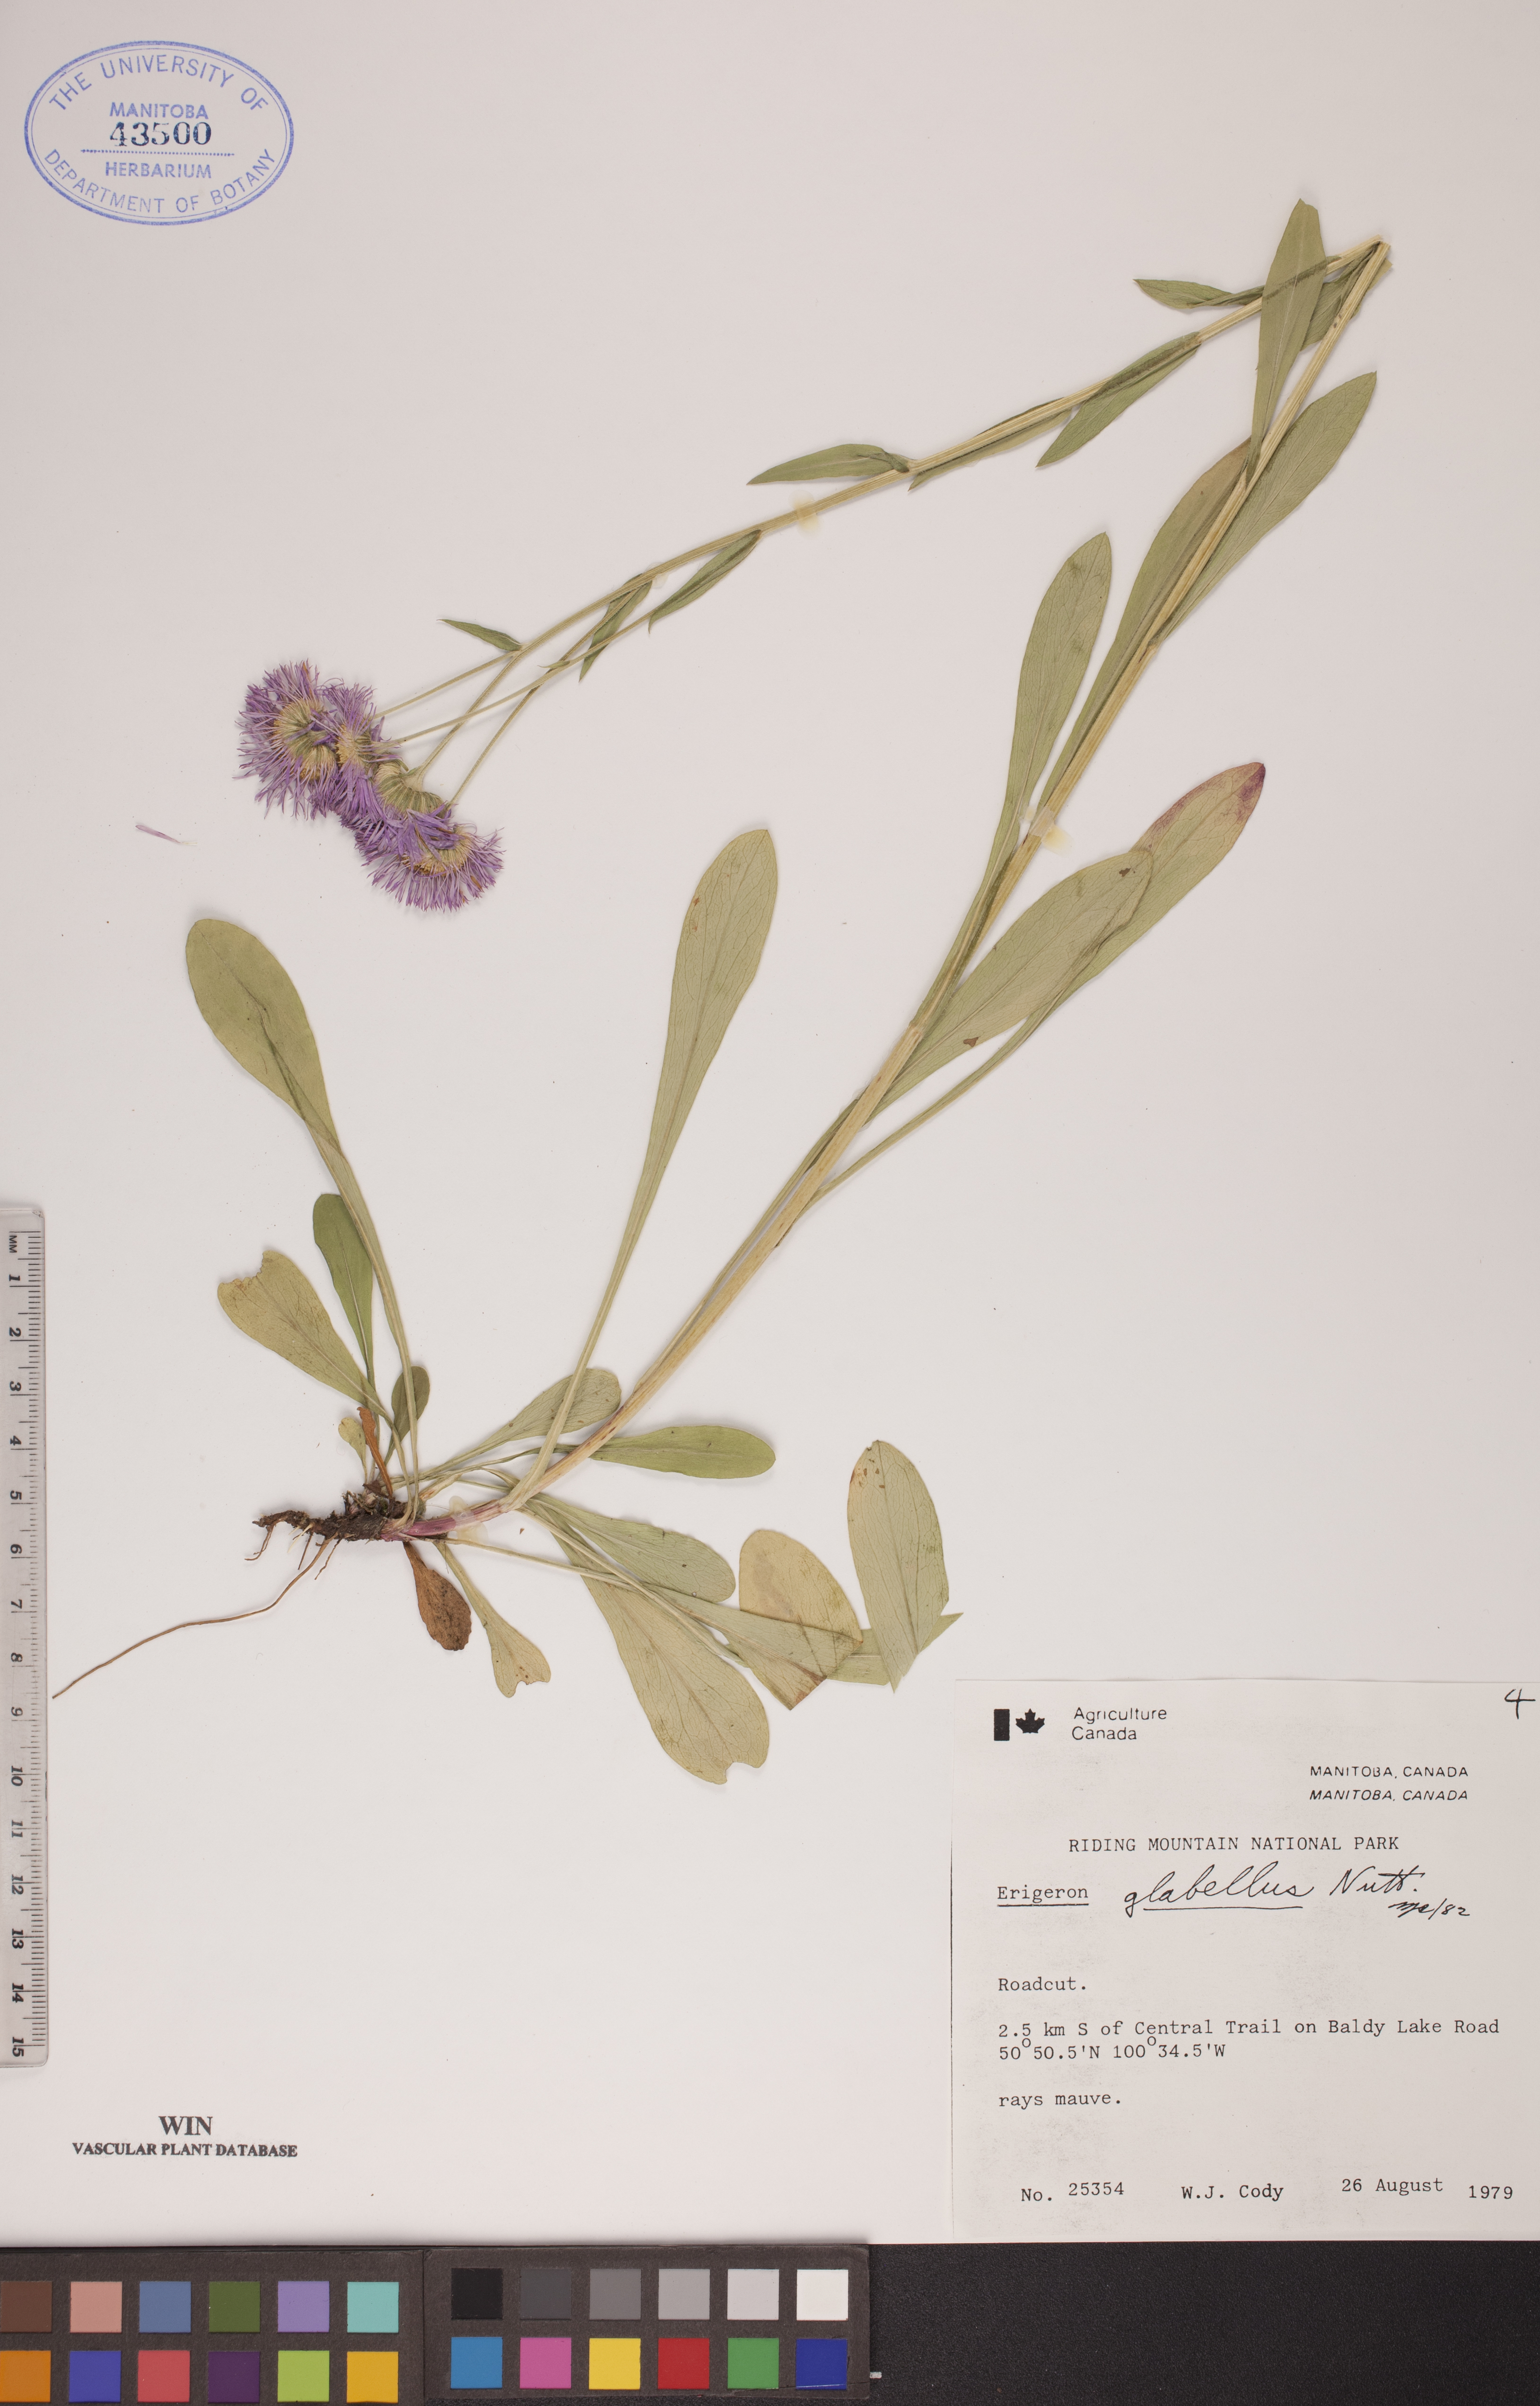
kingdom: Plantae
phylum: Tracheophyta
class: Magnoliopsida
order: Asterales
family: Asteraceae
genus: Erigeron
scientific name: Erigeron glabellus
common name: Smooth fleabane
